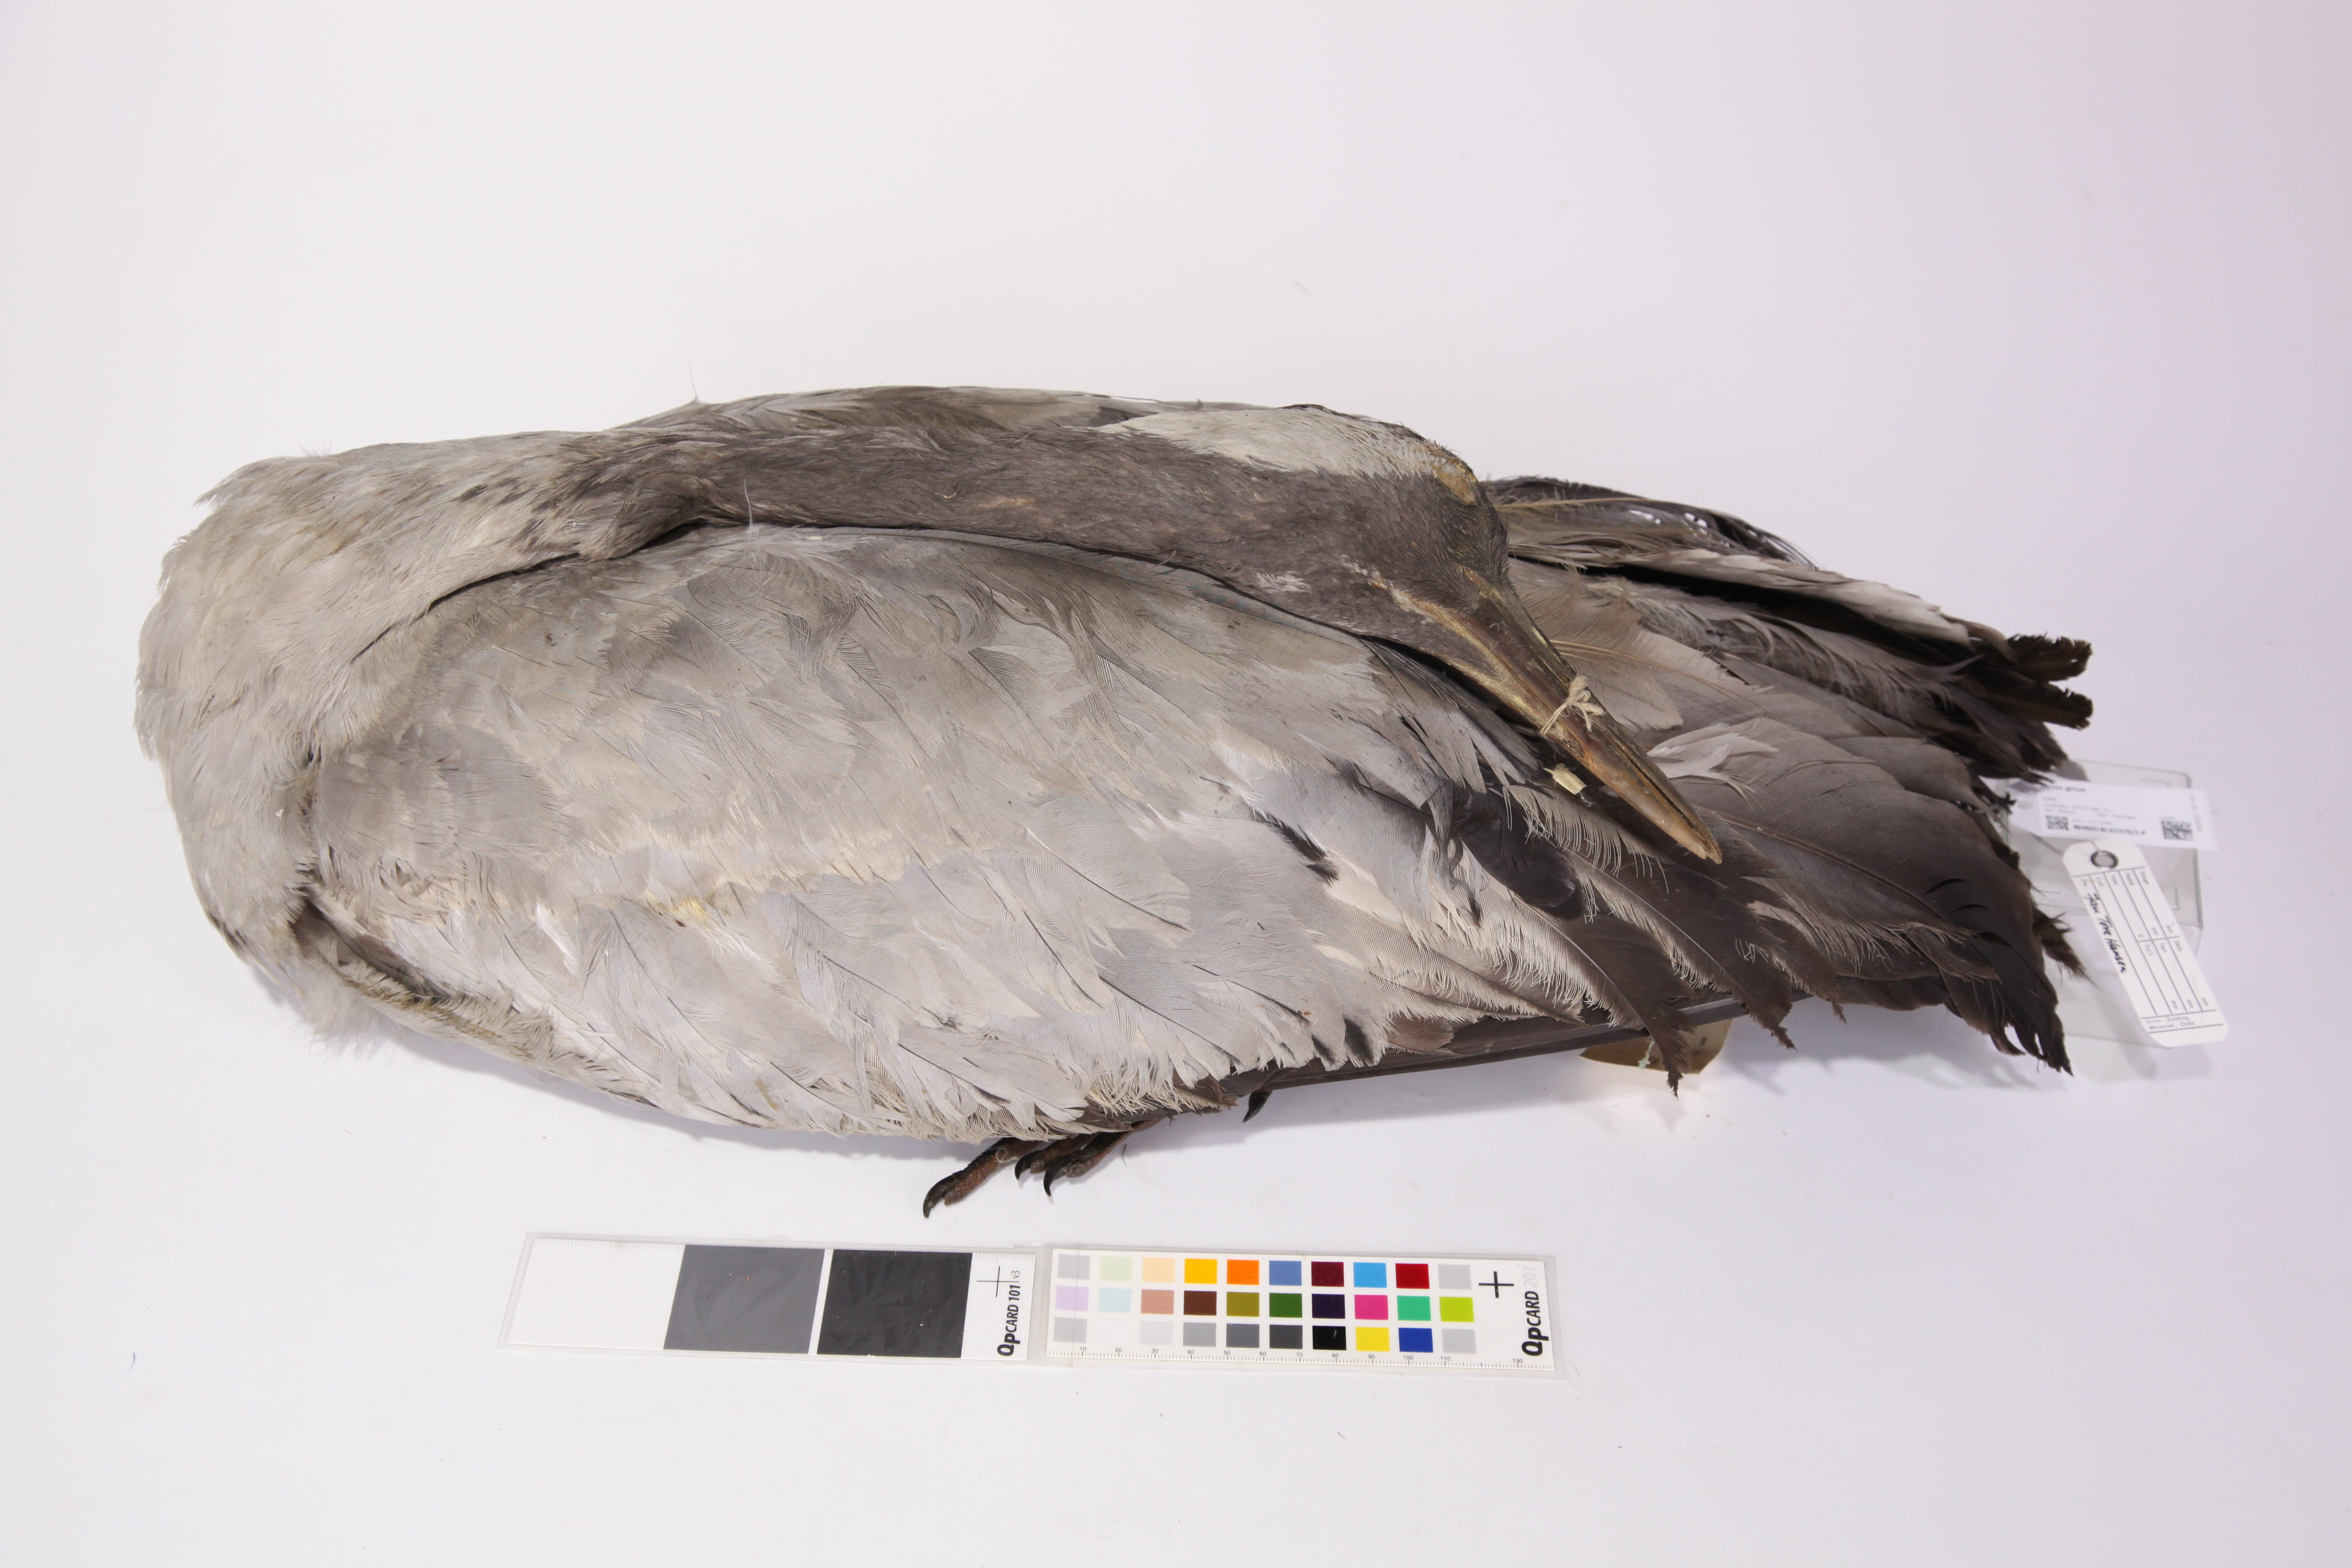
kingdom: Animalia
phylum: Chordata
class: Aves
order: Gruiformes
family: Gruidae
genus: Grus
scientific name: Grus grus
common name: Common crane
